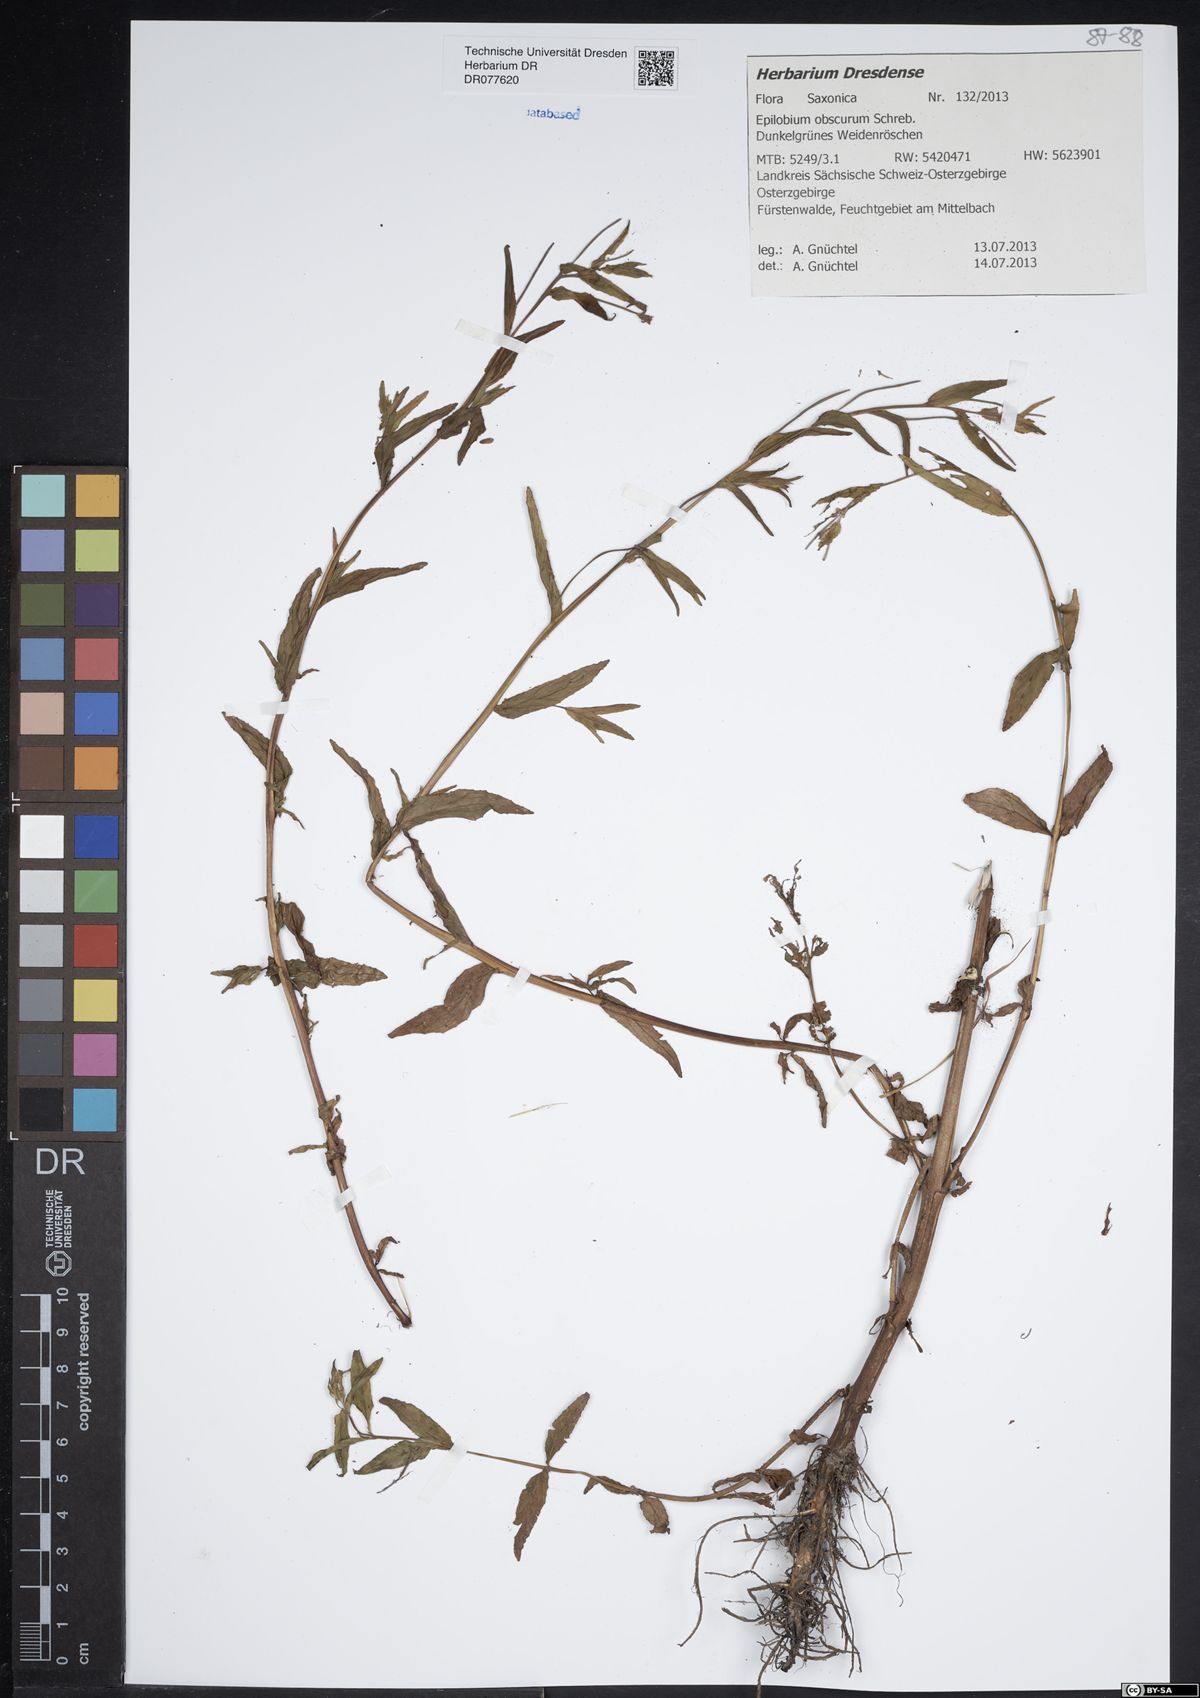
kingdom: Plantae
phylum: Tracheophyta
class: Magnoliopsida
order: Myrtales
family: Onagraceae
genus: Epilobium
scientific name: Epilobium obscurum
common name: Short-fruited willowherb
